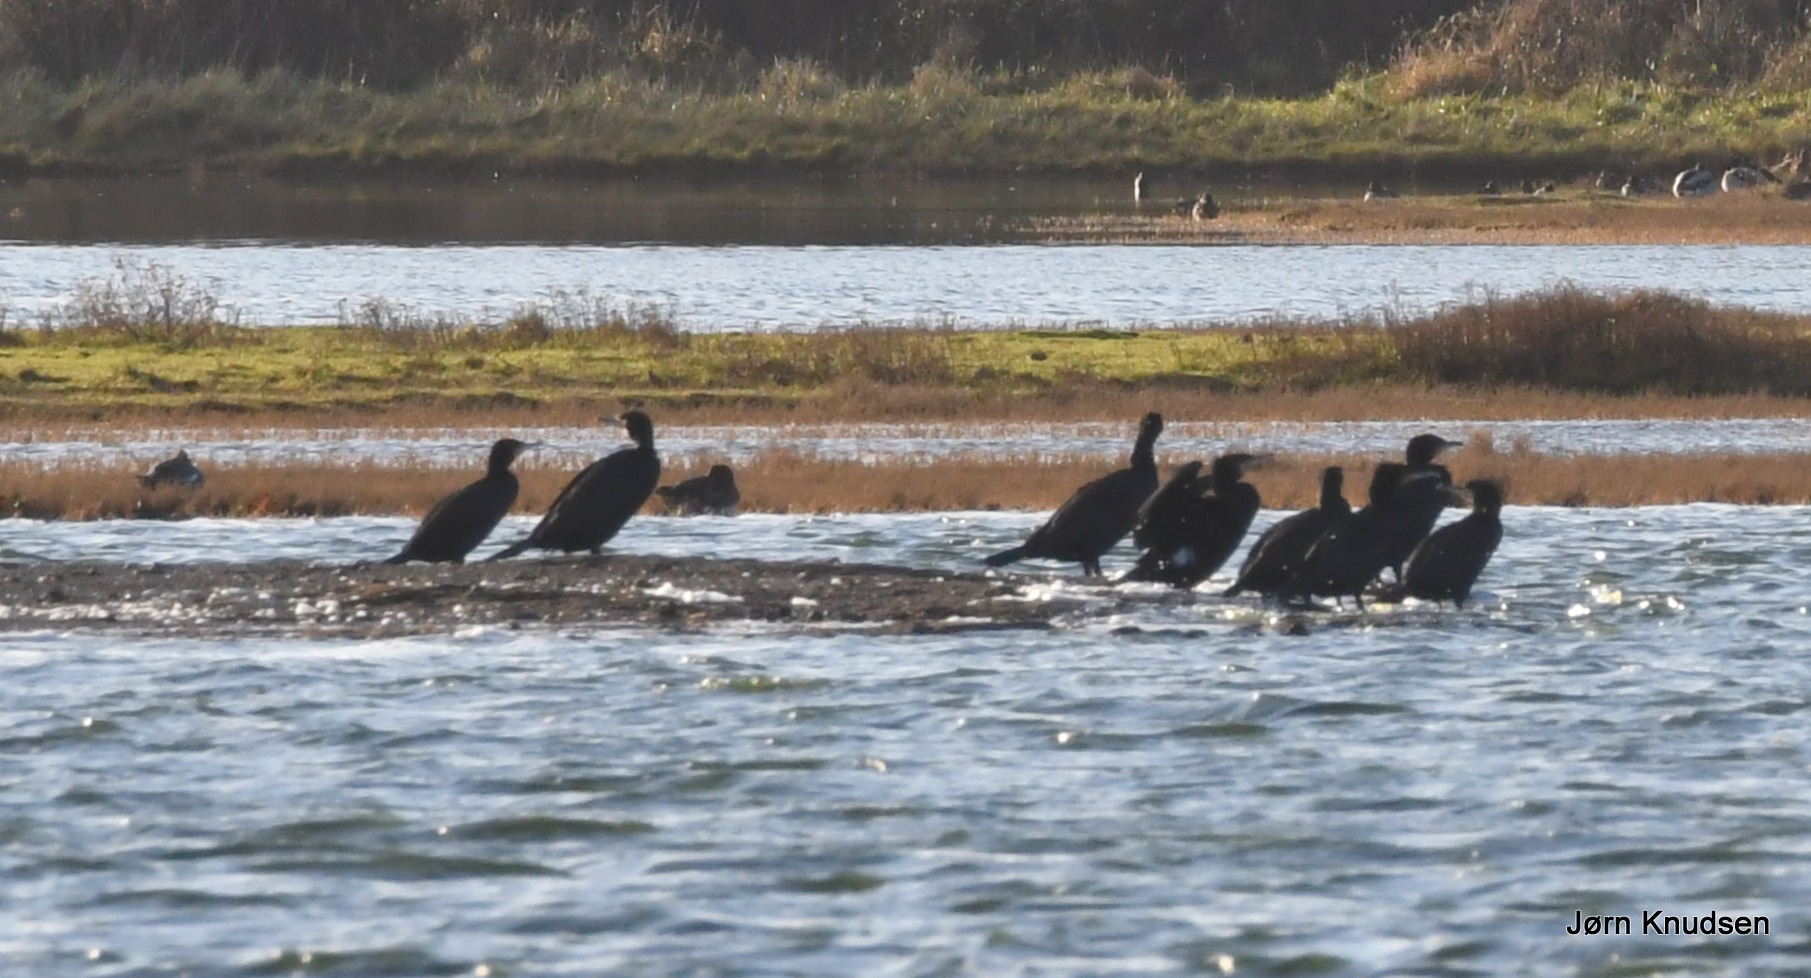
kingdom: Animalia
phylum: Chordata
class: Aves
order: Suliformes
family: Phalacrocoracidae
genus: Phalacrocorax
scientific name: Phalacrocorax carbo
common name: Skarv
